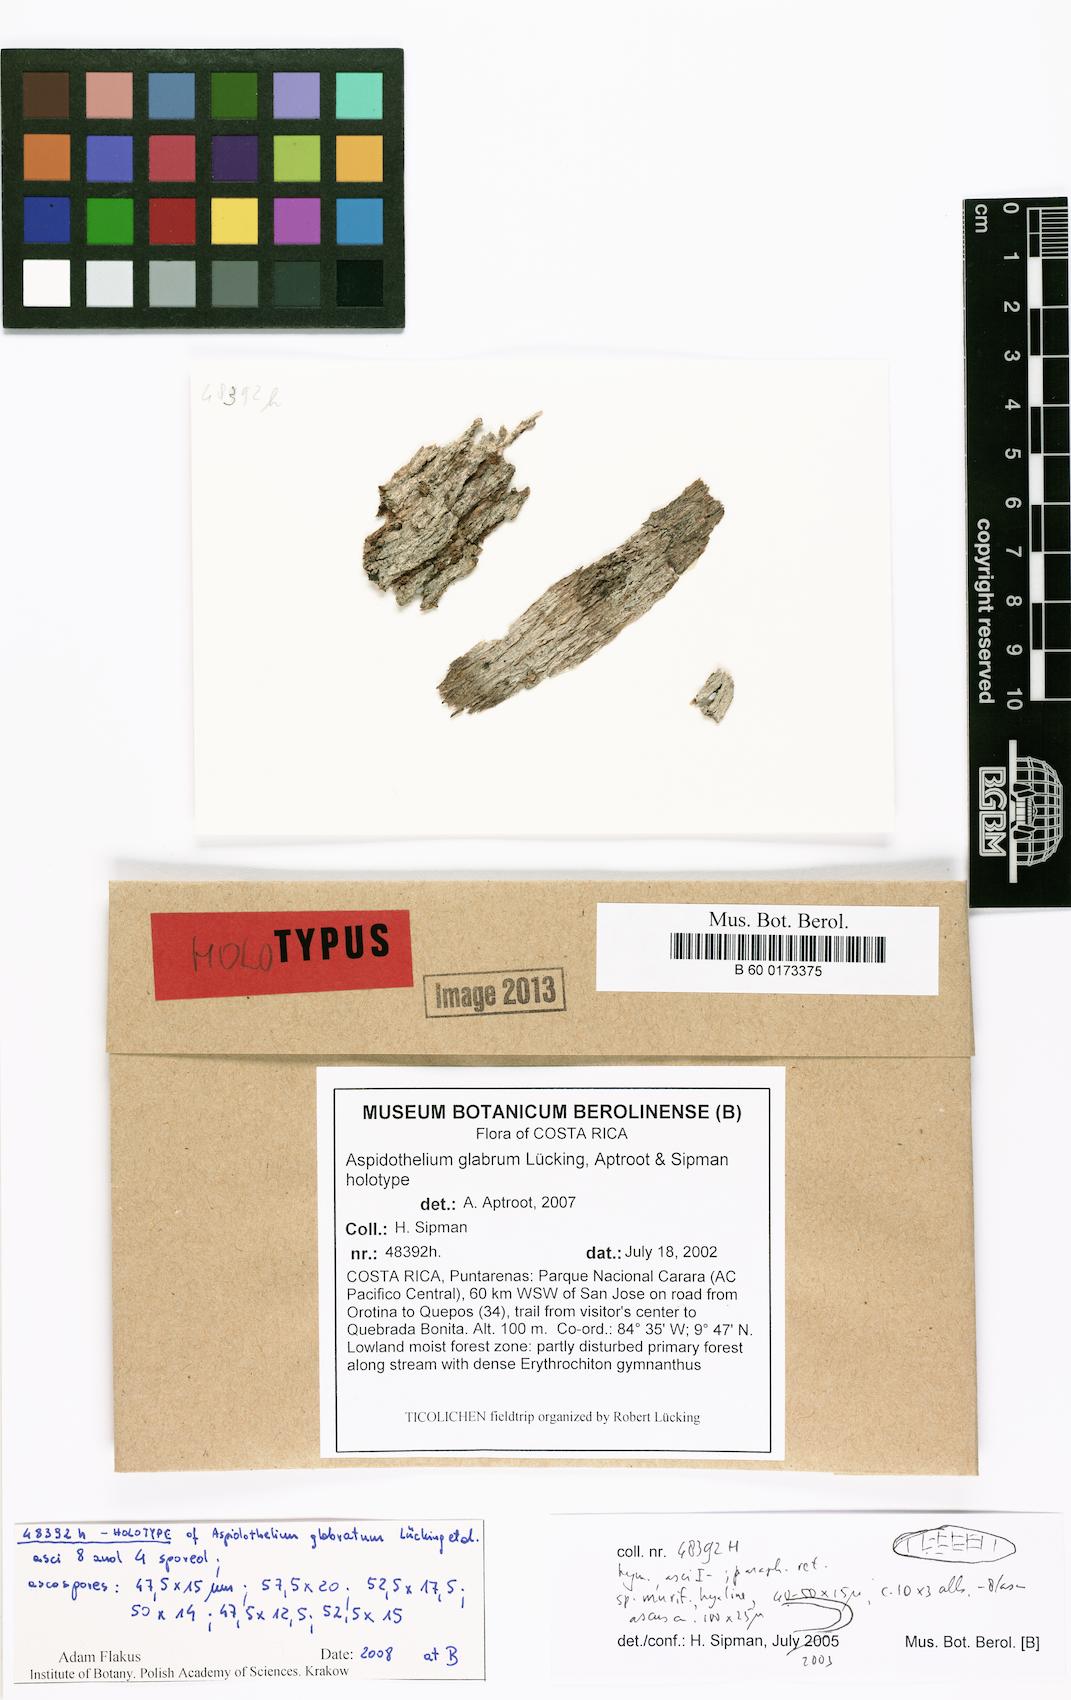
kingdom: Fungi
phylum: Ascomycota
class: Lecanoromycetes
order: Ostropales
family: Thelenellaceae
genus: Aspidothelium
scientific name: Aspidothelium glabrum
